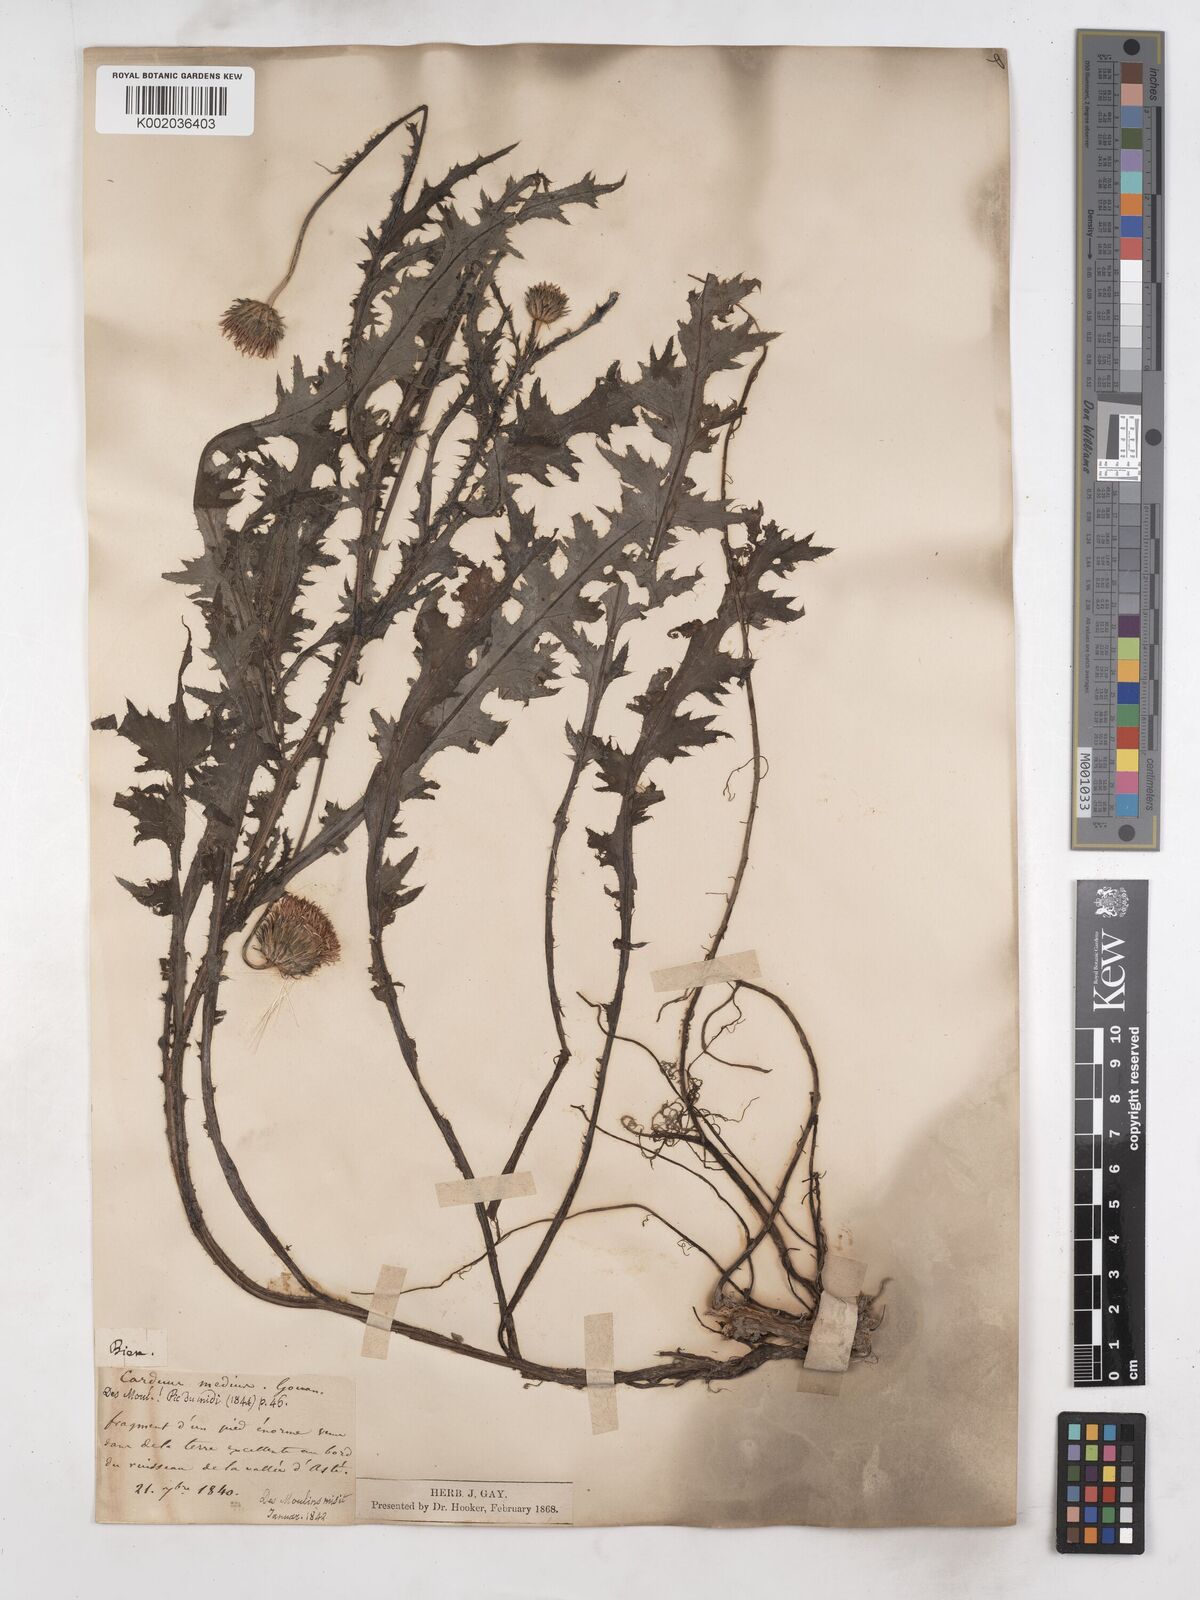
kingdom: Plantae
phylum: Tracheophyta
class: Magnoliopsida
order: Asterales
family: Asteraceae
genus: Carduus
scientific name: Carduus defloratus
